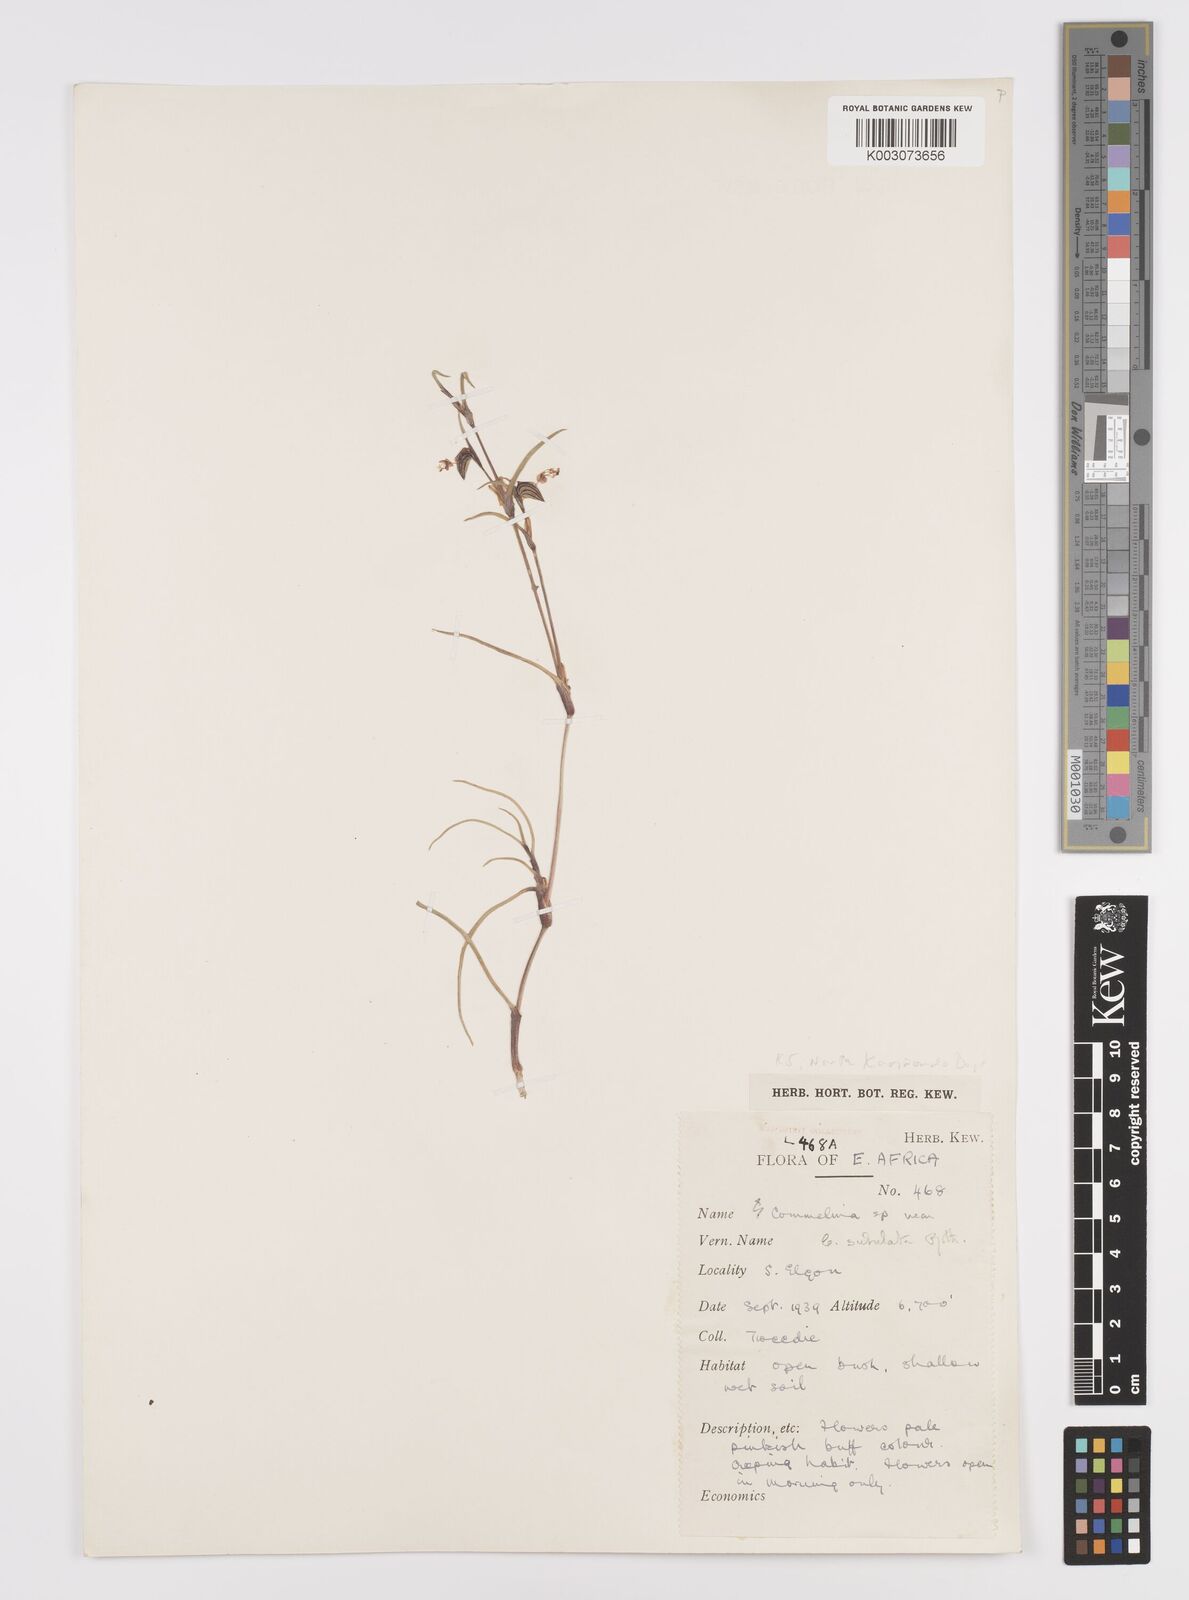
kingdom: Plantae
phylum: Tracheophyta
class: Liliopsida
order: Commelinales
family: Commelinaceae
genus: Commelina
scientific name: Commelina purpurea
